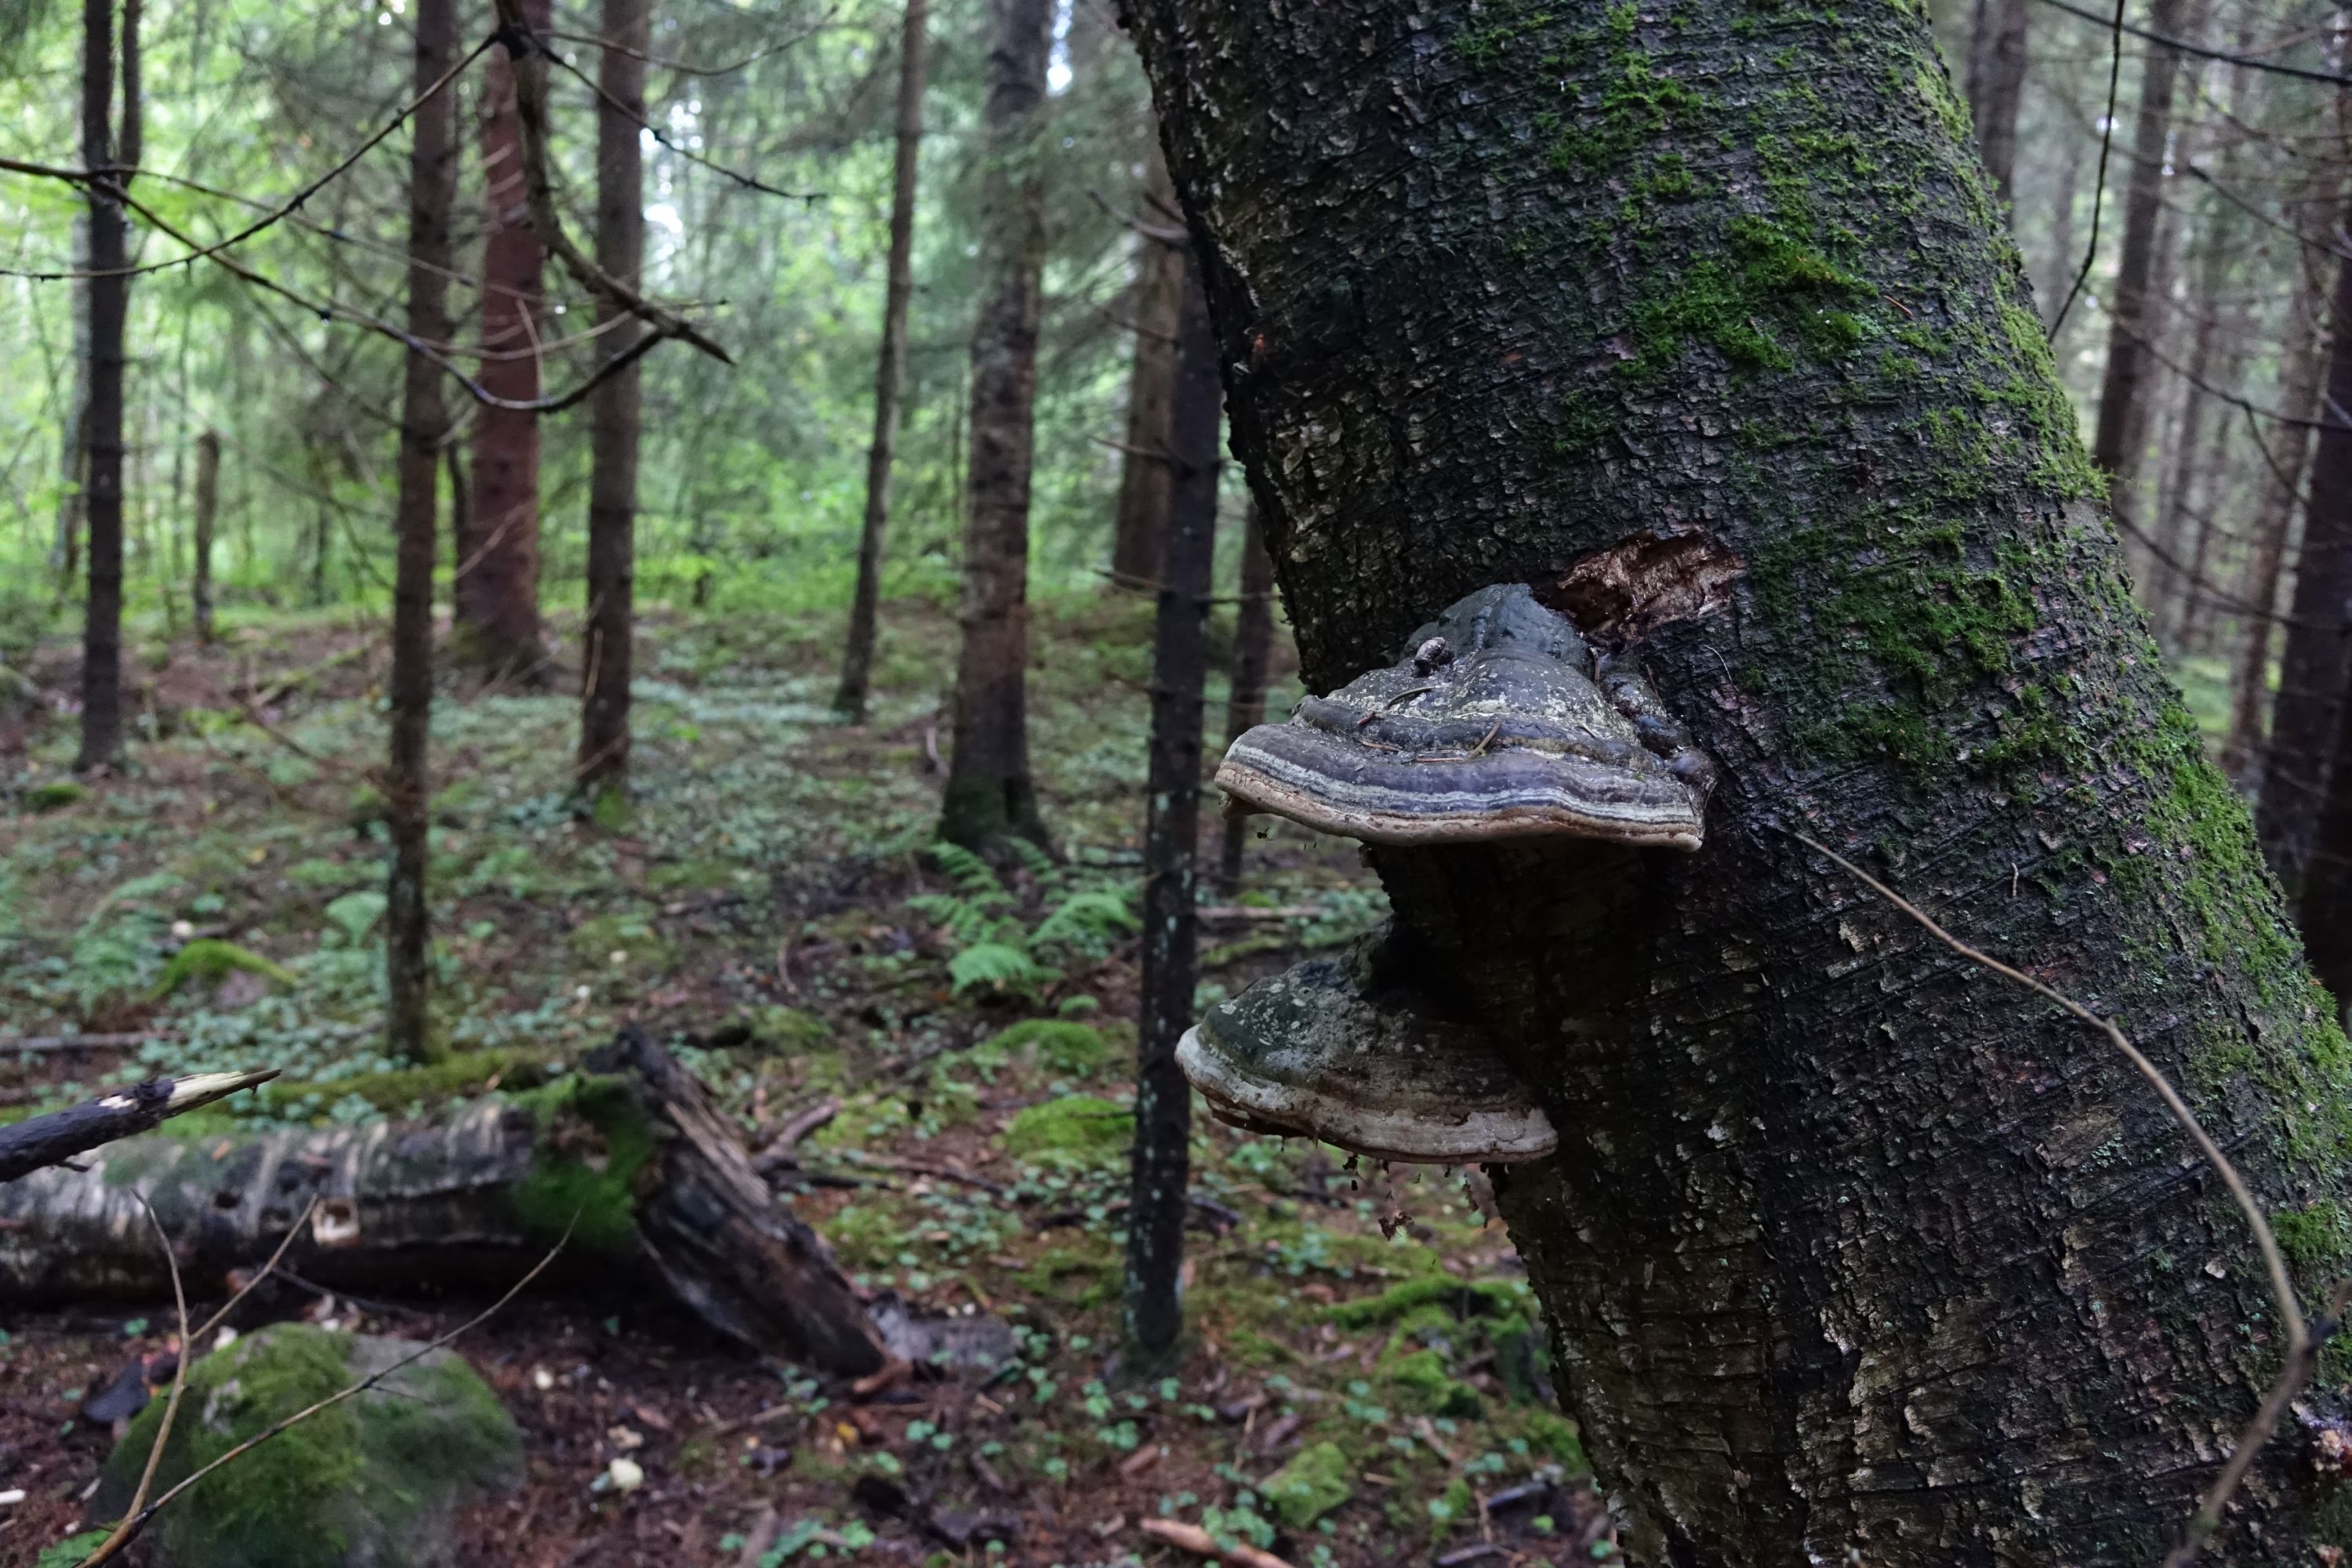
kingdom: Fungi
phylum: Basidiomycota
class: Agaricomycetes
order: Polyporales
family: Polyporaceae
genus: Fomes
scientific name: Fomes fomentarius
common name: Hoof fungus
